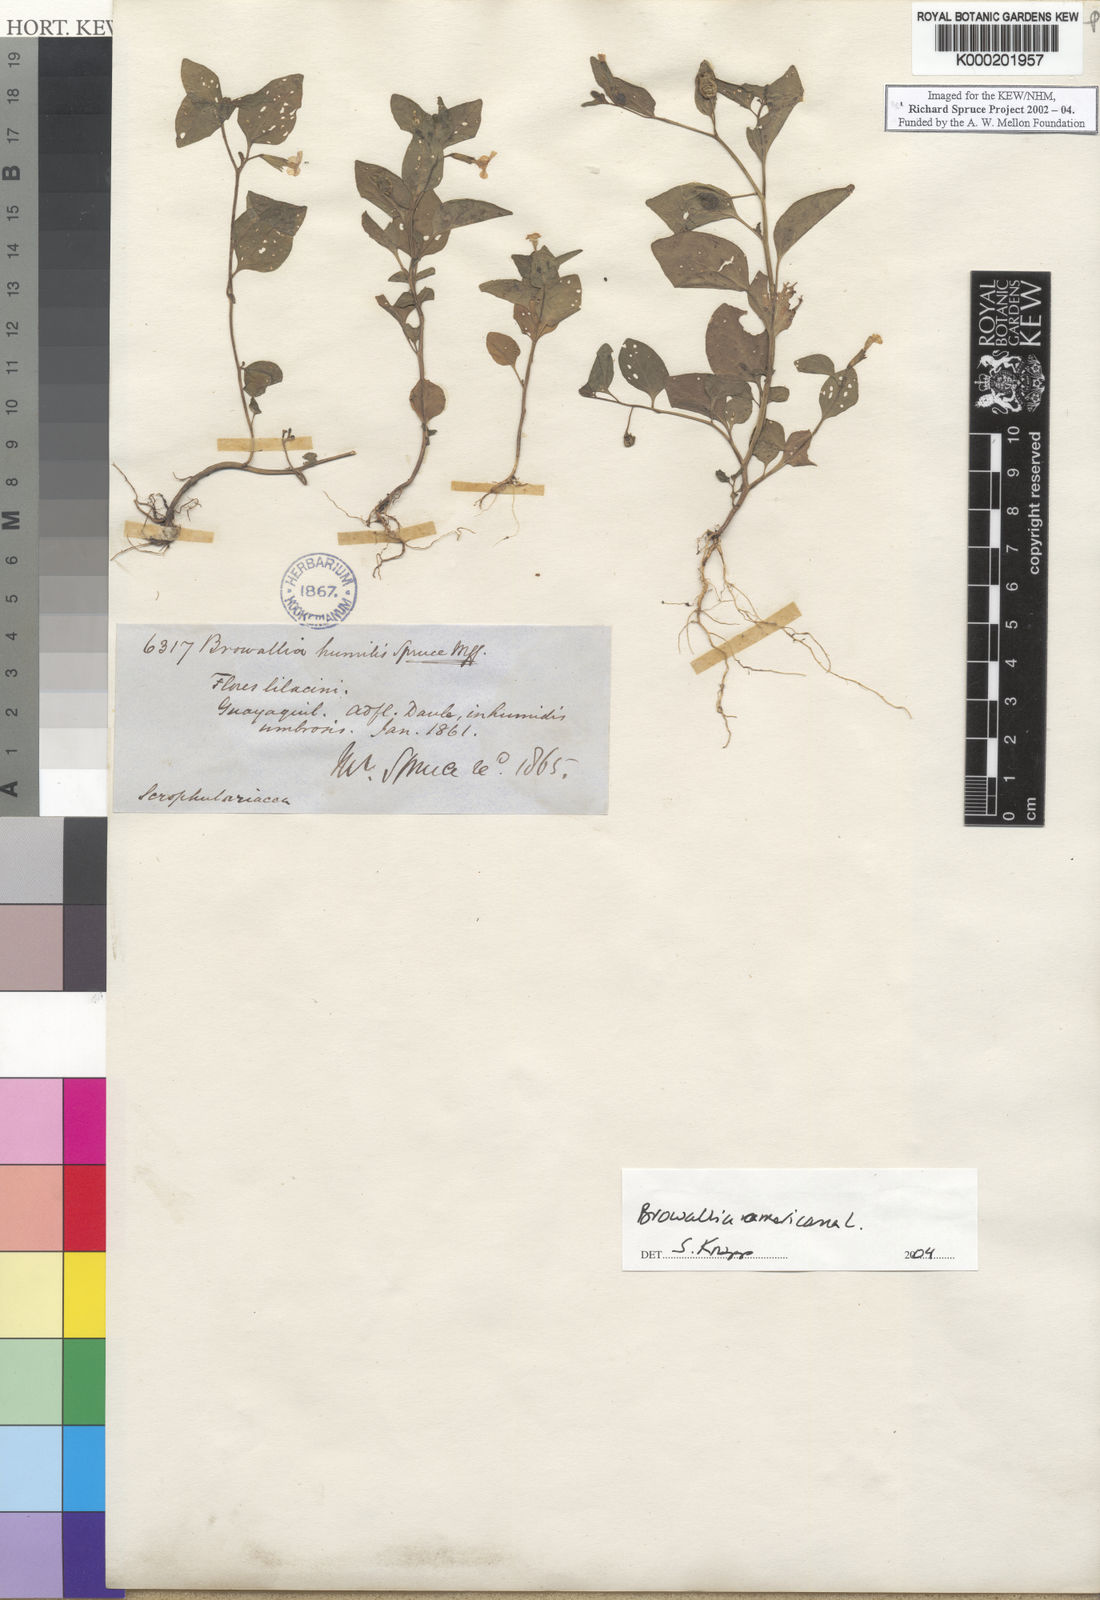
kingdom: Plantae
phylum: Tracheophyta
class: Magnoliopsida
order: Solanales
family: Solanaceae
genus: Browallia
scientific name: Browallia americana
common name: Jamaican forget-me-not
